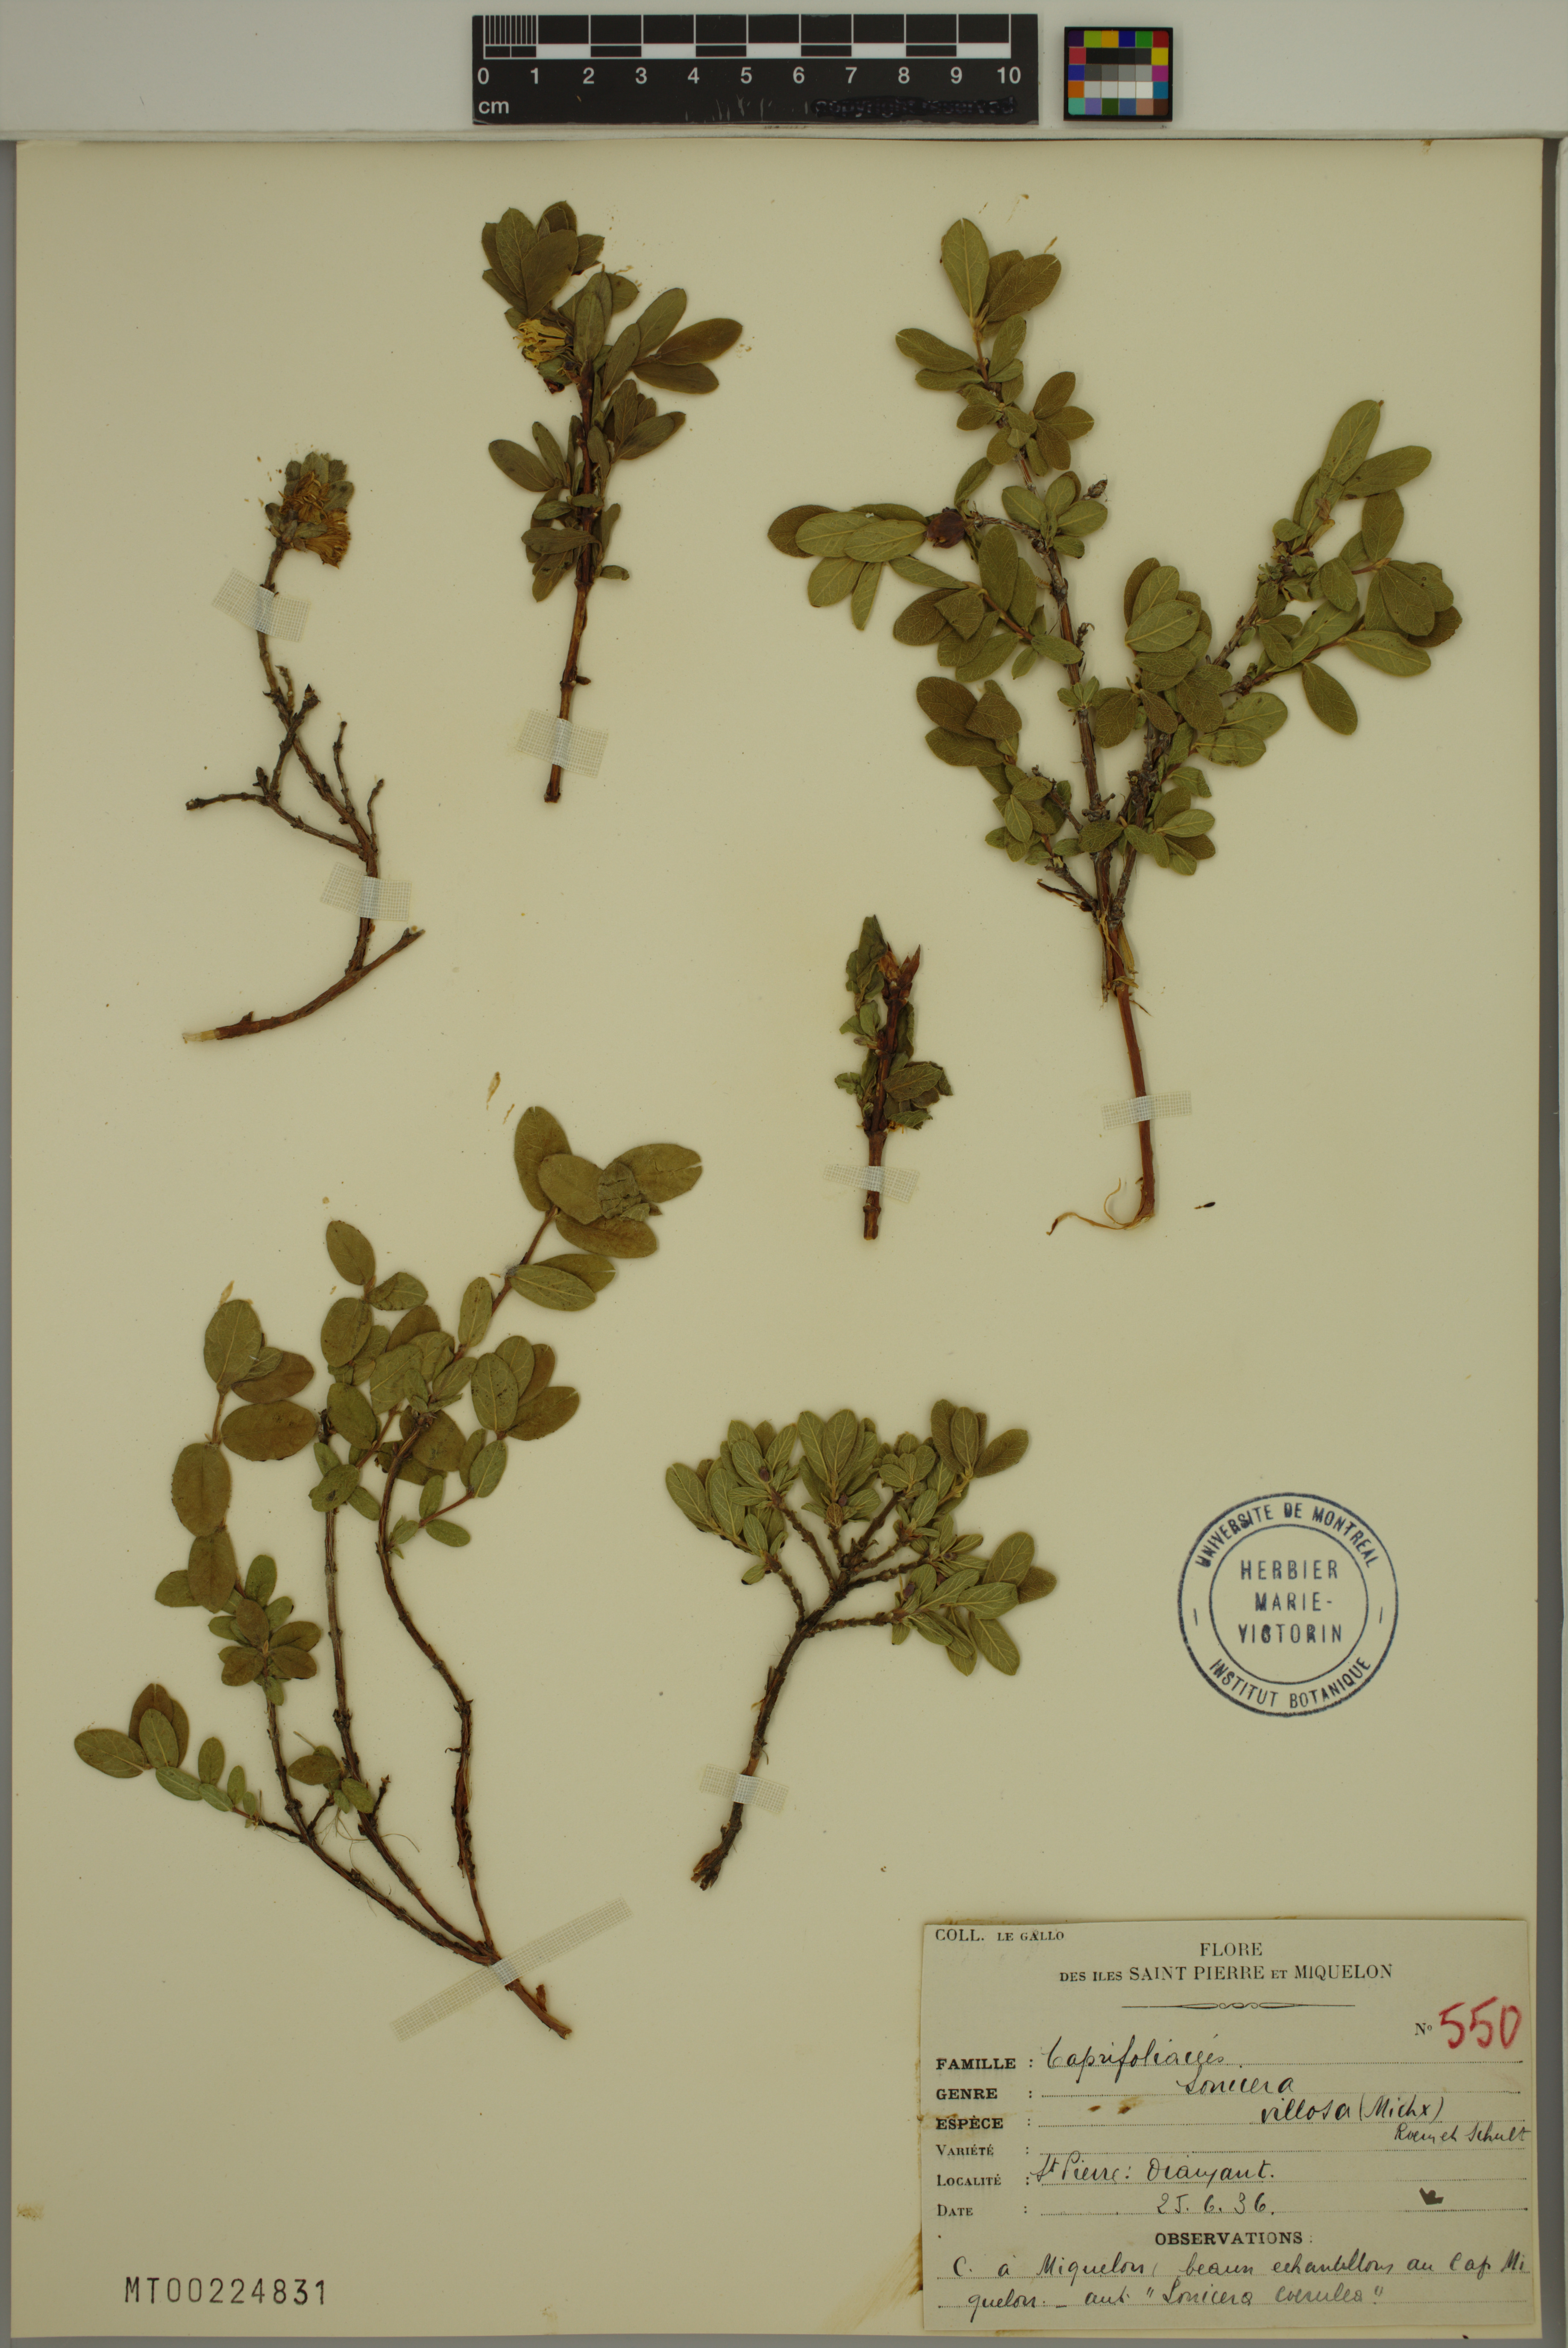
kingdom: Plantae
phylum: Tracheophyta
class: Magnoliopsida
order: Dipsacales
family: Caprifoliaceae
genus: Lonicera
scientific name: Lonicera villosa
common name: Mountain fly-honeysuckle
